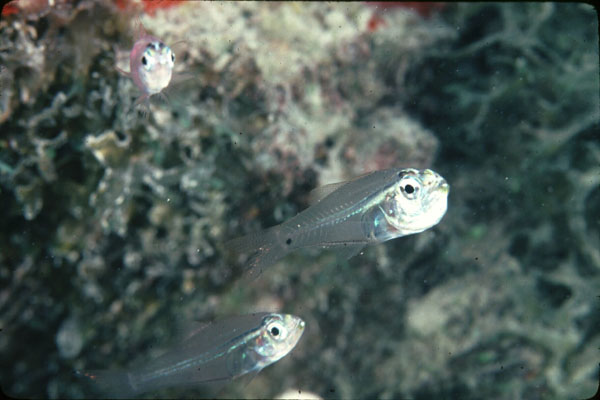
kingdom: Animalia
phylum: Chordata
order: Perciformes
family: Apogonidae
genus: Rhabdamia
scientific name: Rhabdamia gracilis
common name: Luminous cardinalfish
